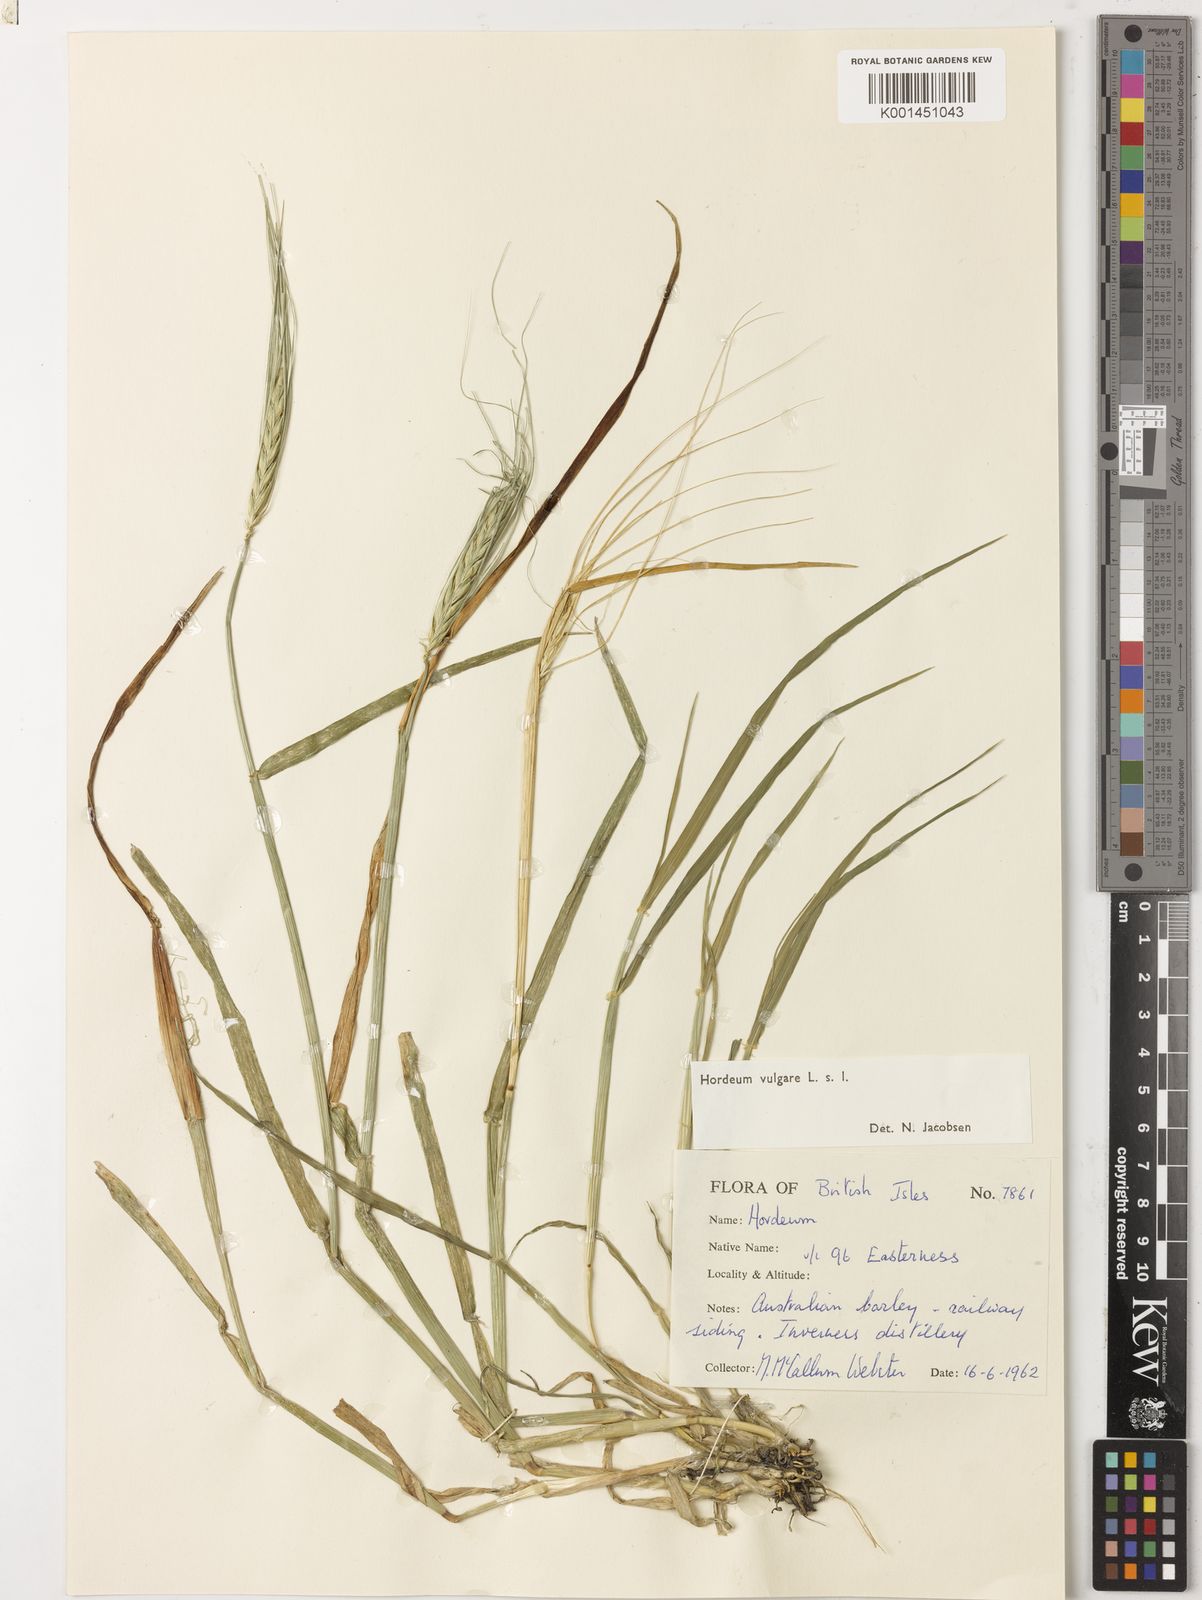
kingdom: Plantae
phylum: Tracheophyta
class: Liliopsida
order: Poales
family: Poaceae
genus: Hordeum
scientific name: Hordeum vulgare
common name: Common barley
